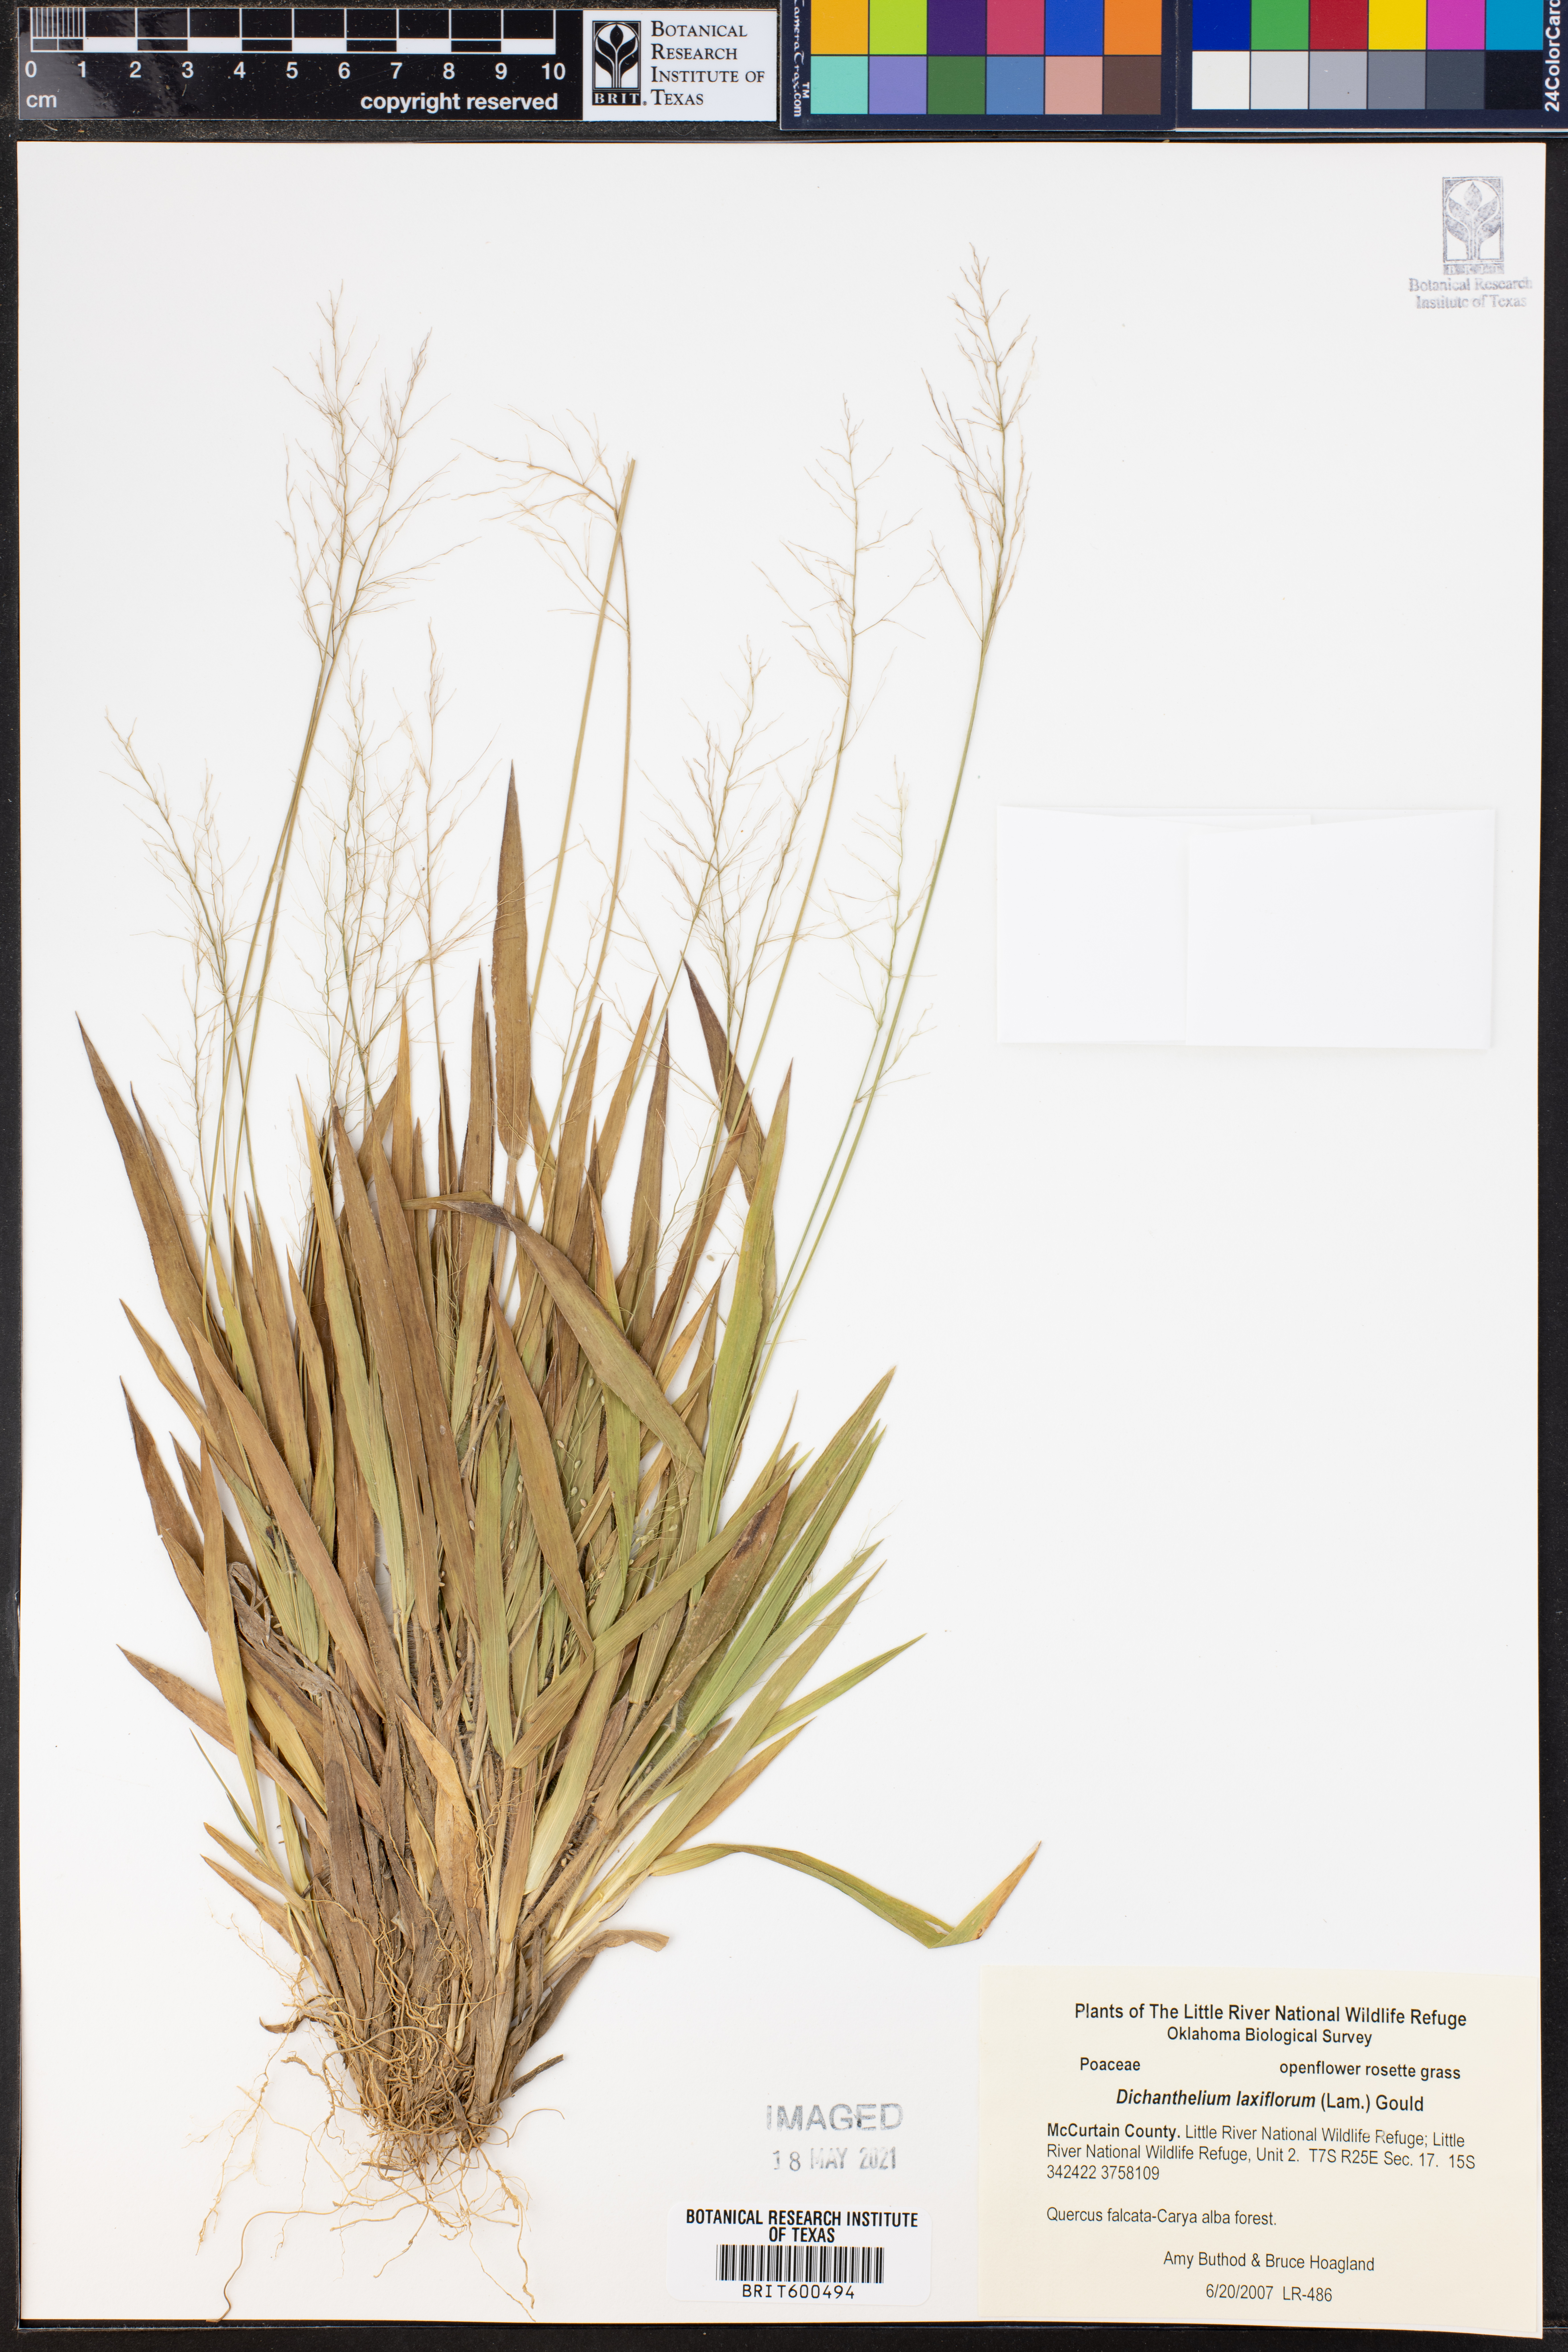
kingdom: Plantae
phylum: Tracheophyta
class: Liliopsida
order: Poales
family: Poaceae
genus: Dichanthelium
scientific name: Dichanthelium laxiflorum
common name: Soft-tuft panic grass
